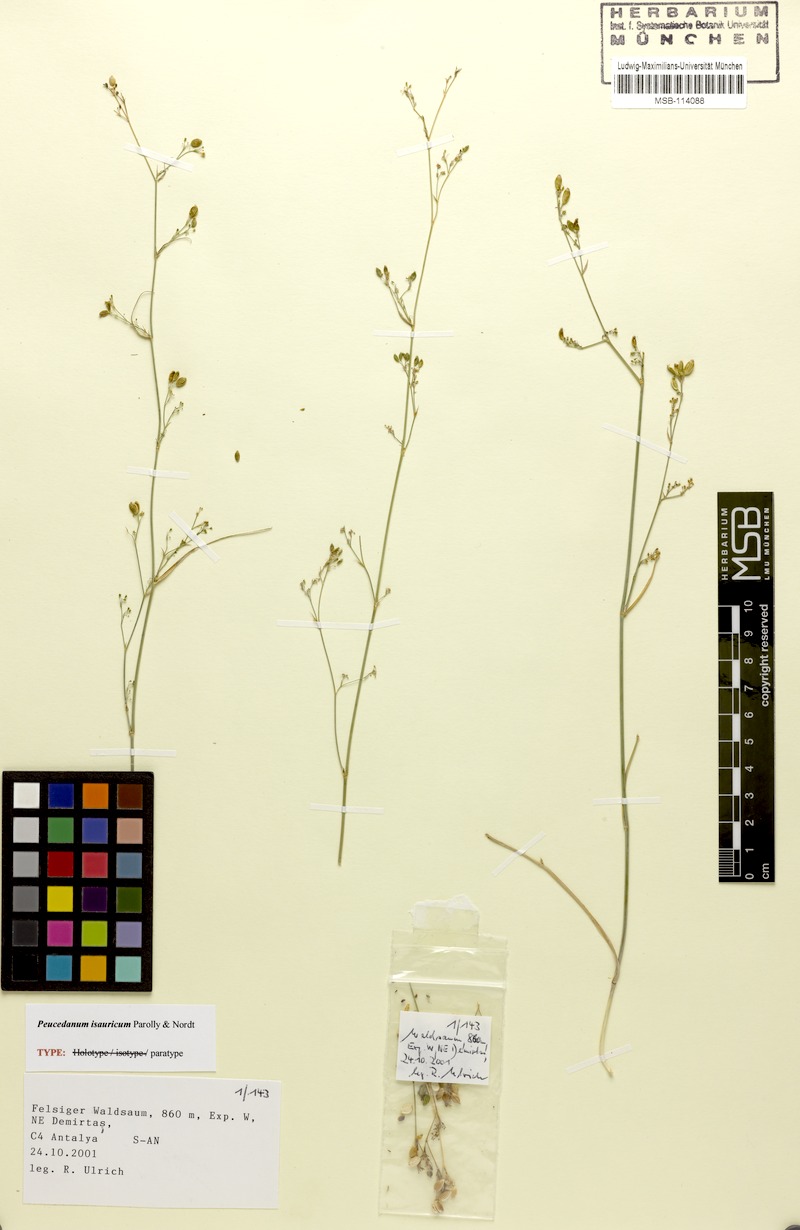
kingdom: Plantae
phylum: Tracheophyta
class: Magnoliopsida
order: Apiales
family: Apiaceae
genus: Dichoropetalum
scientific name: Dichoropetalum isauricum
